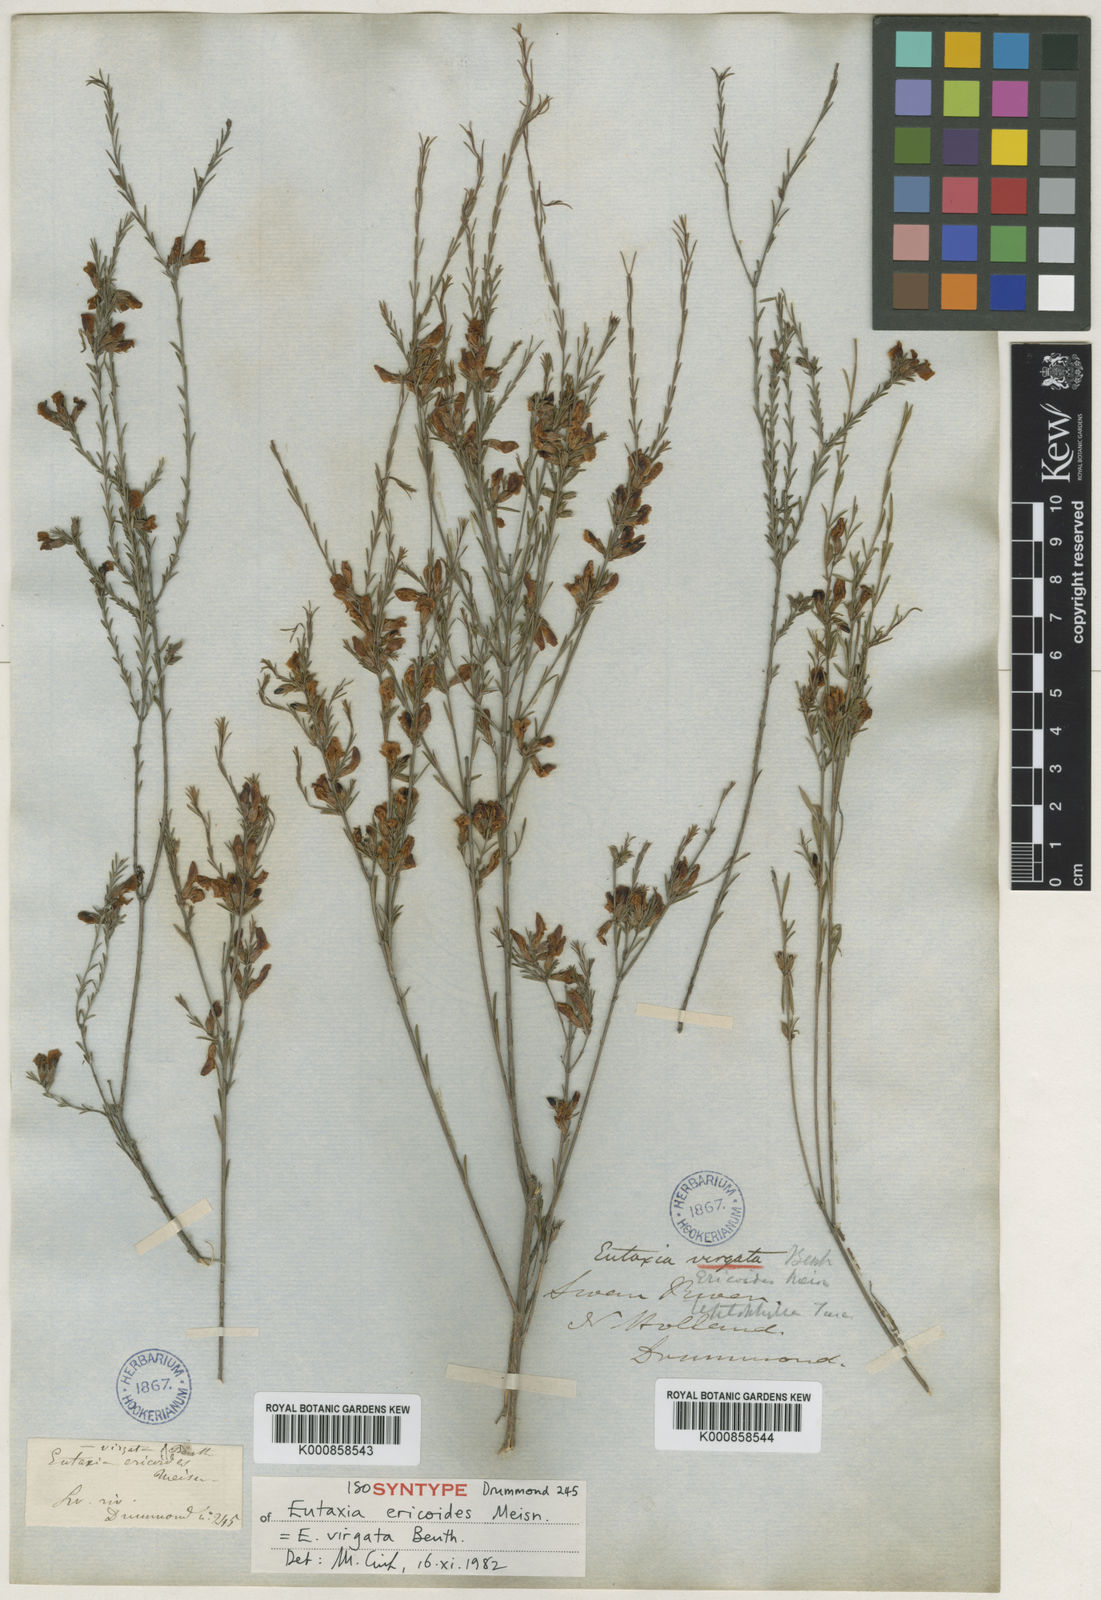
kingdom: Plantae
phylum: Tracheophyta
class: Magnoliopsida
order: Fabales
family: Fabaceae
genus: Eutaxia
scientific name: Eutaxia virgata
